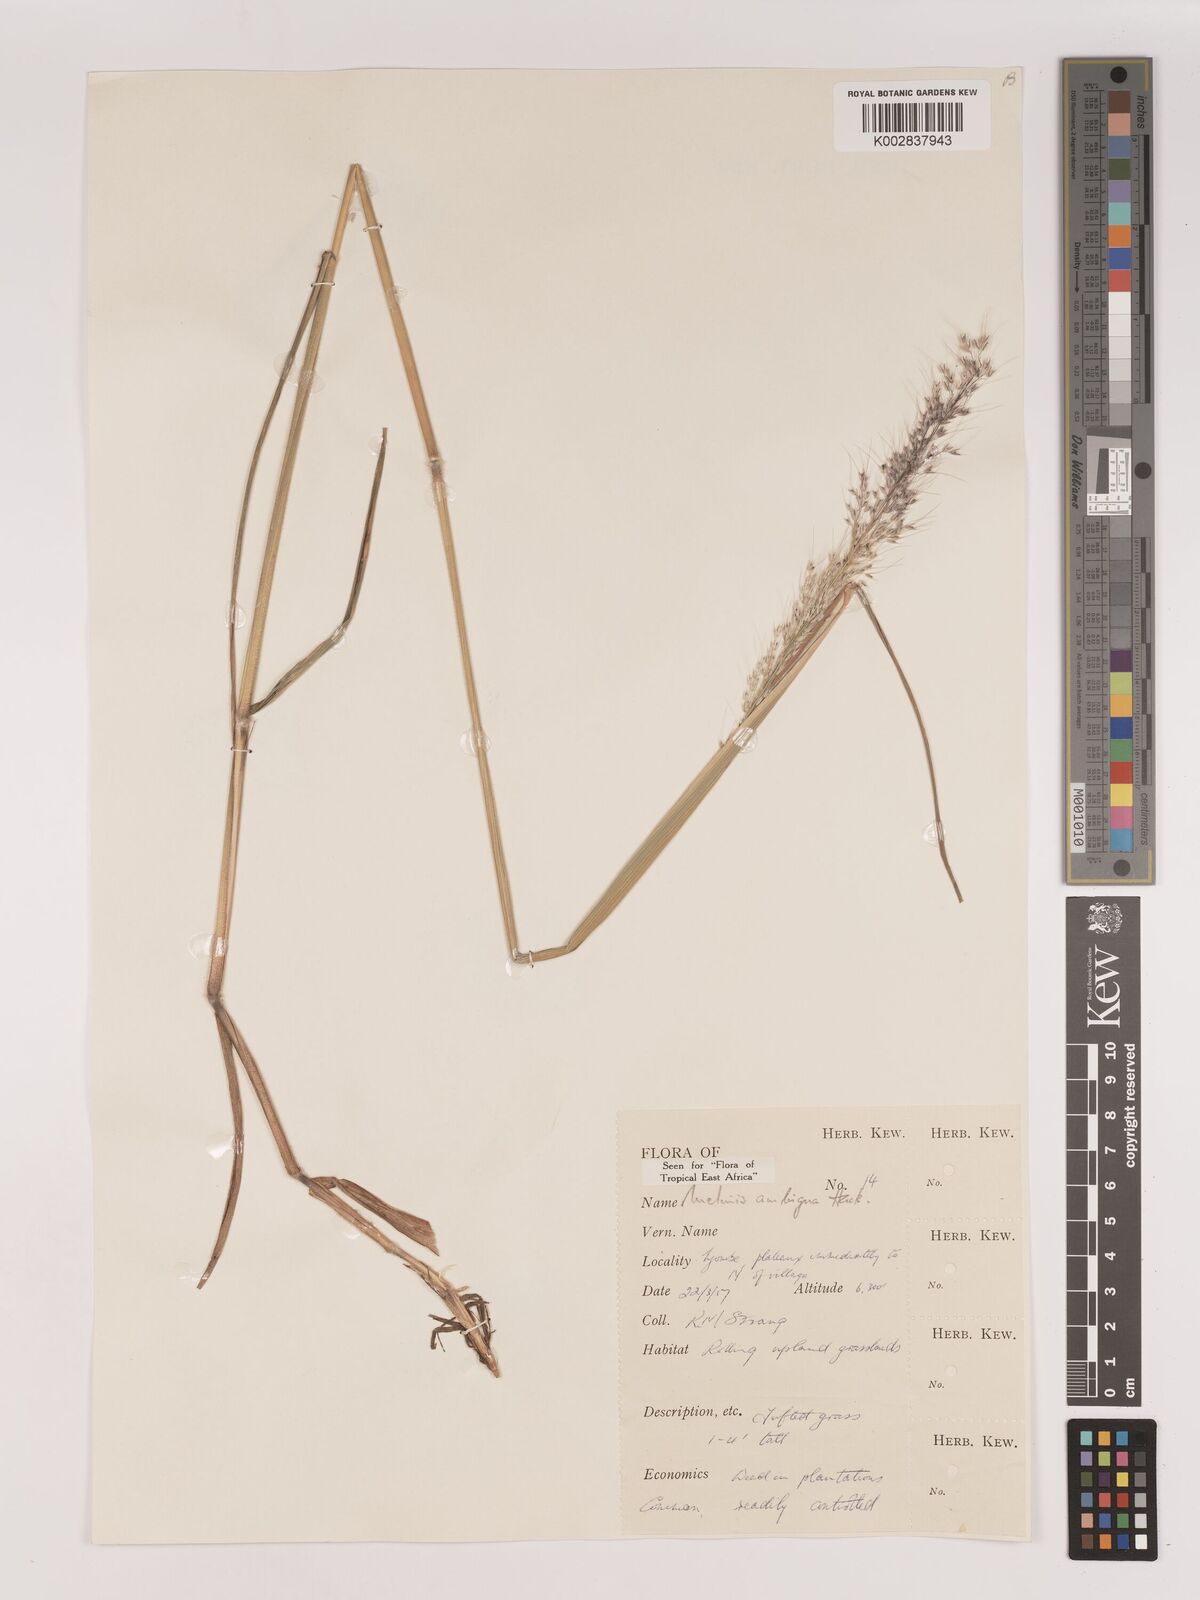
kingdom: Plantae
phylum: Tracheophyta
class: Liliopsida
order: Poales
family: Poaceae
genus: Melinis
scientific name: Melinis ambigua
